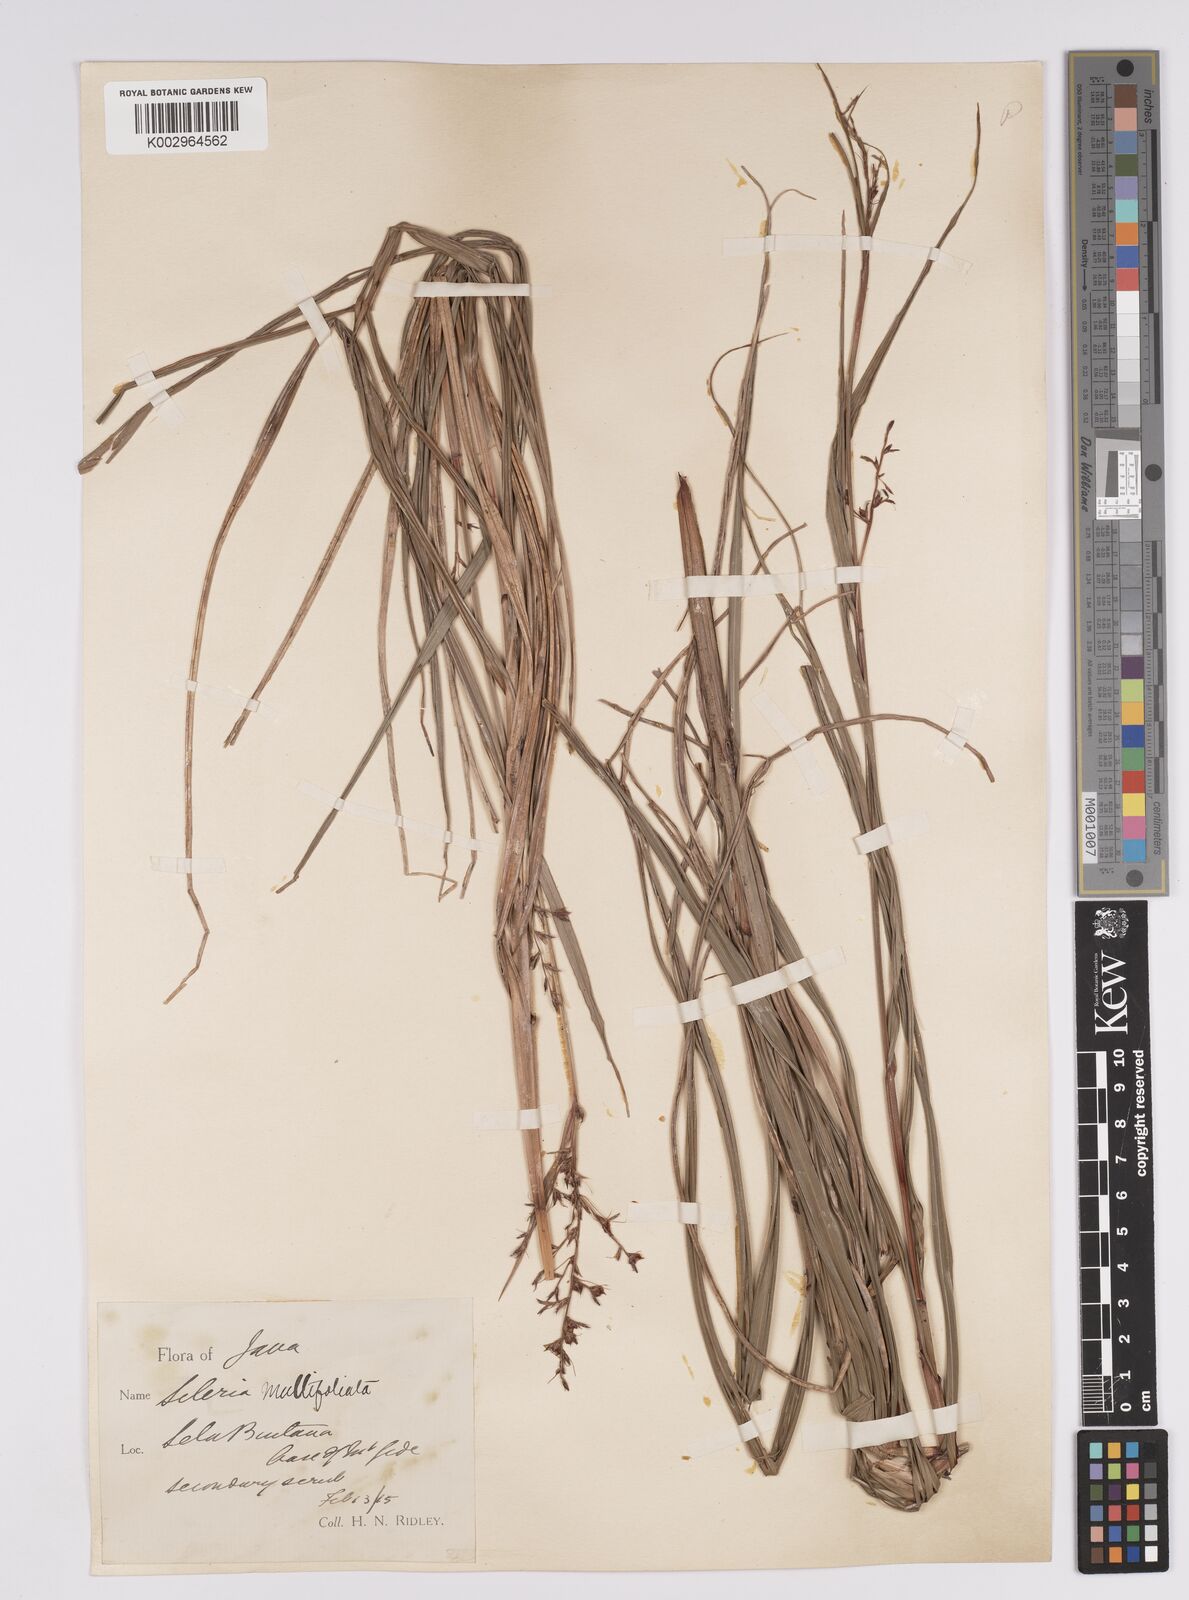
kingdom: Plantae
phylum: Tracheophyta
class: Liliopsida
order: Poales
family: Cyperaceae
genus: Scleria
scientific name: Scleria purpurascens
